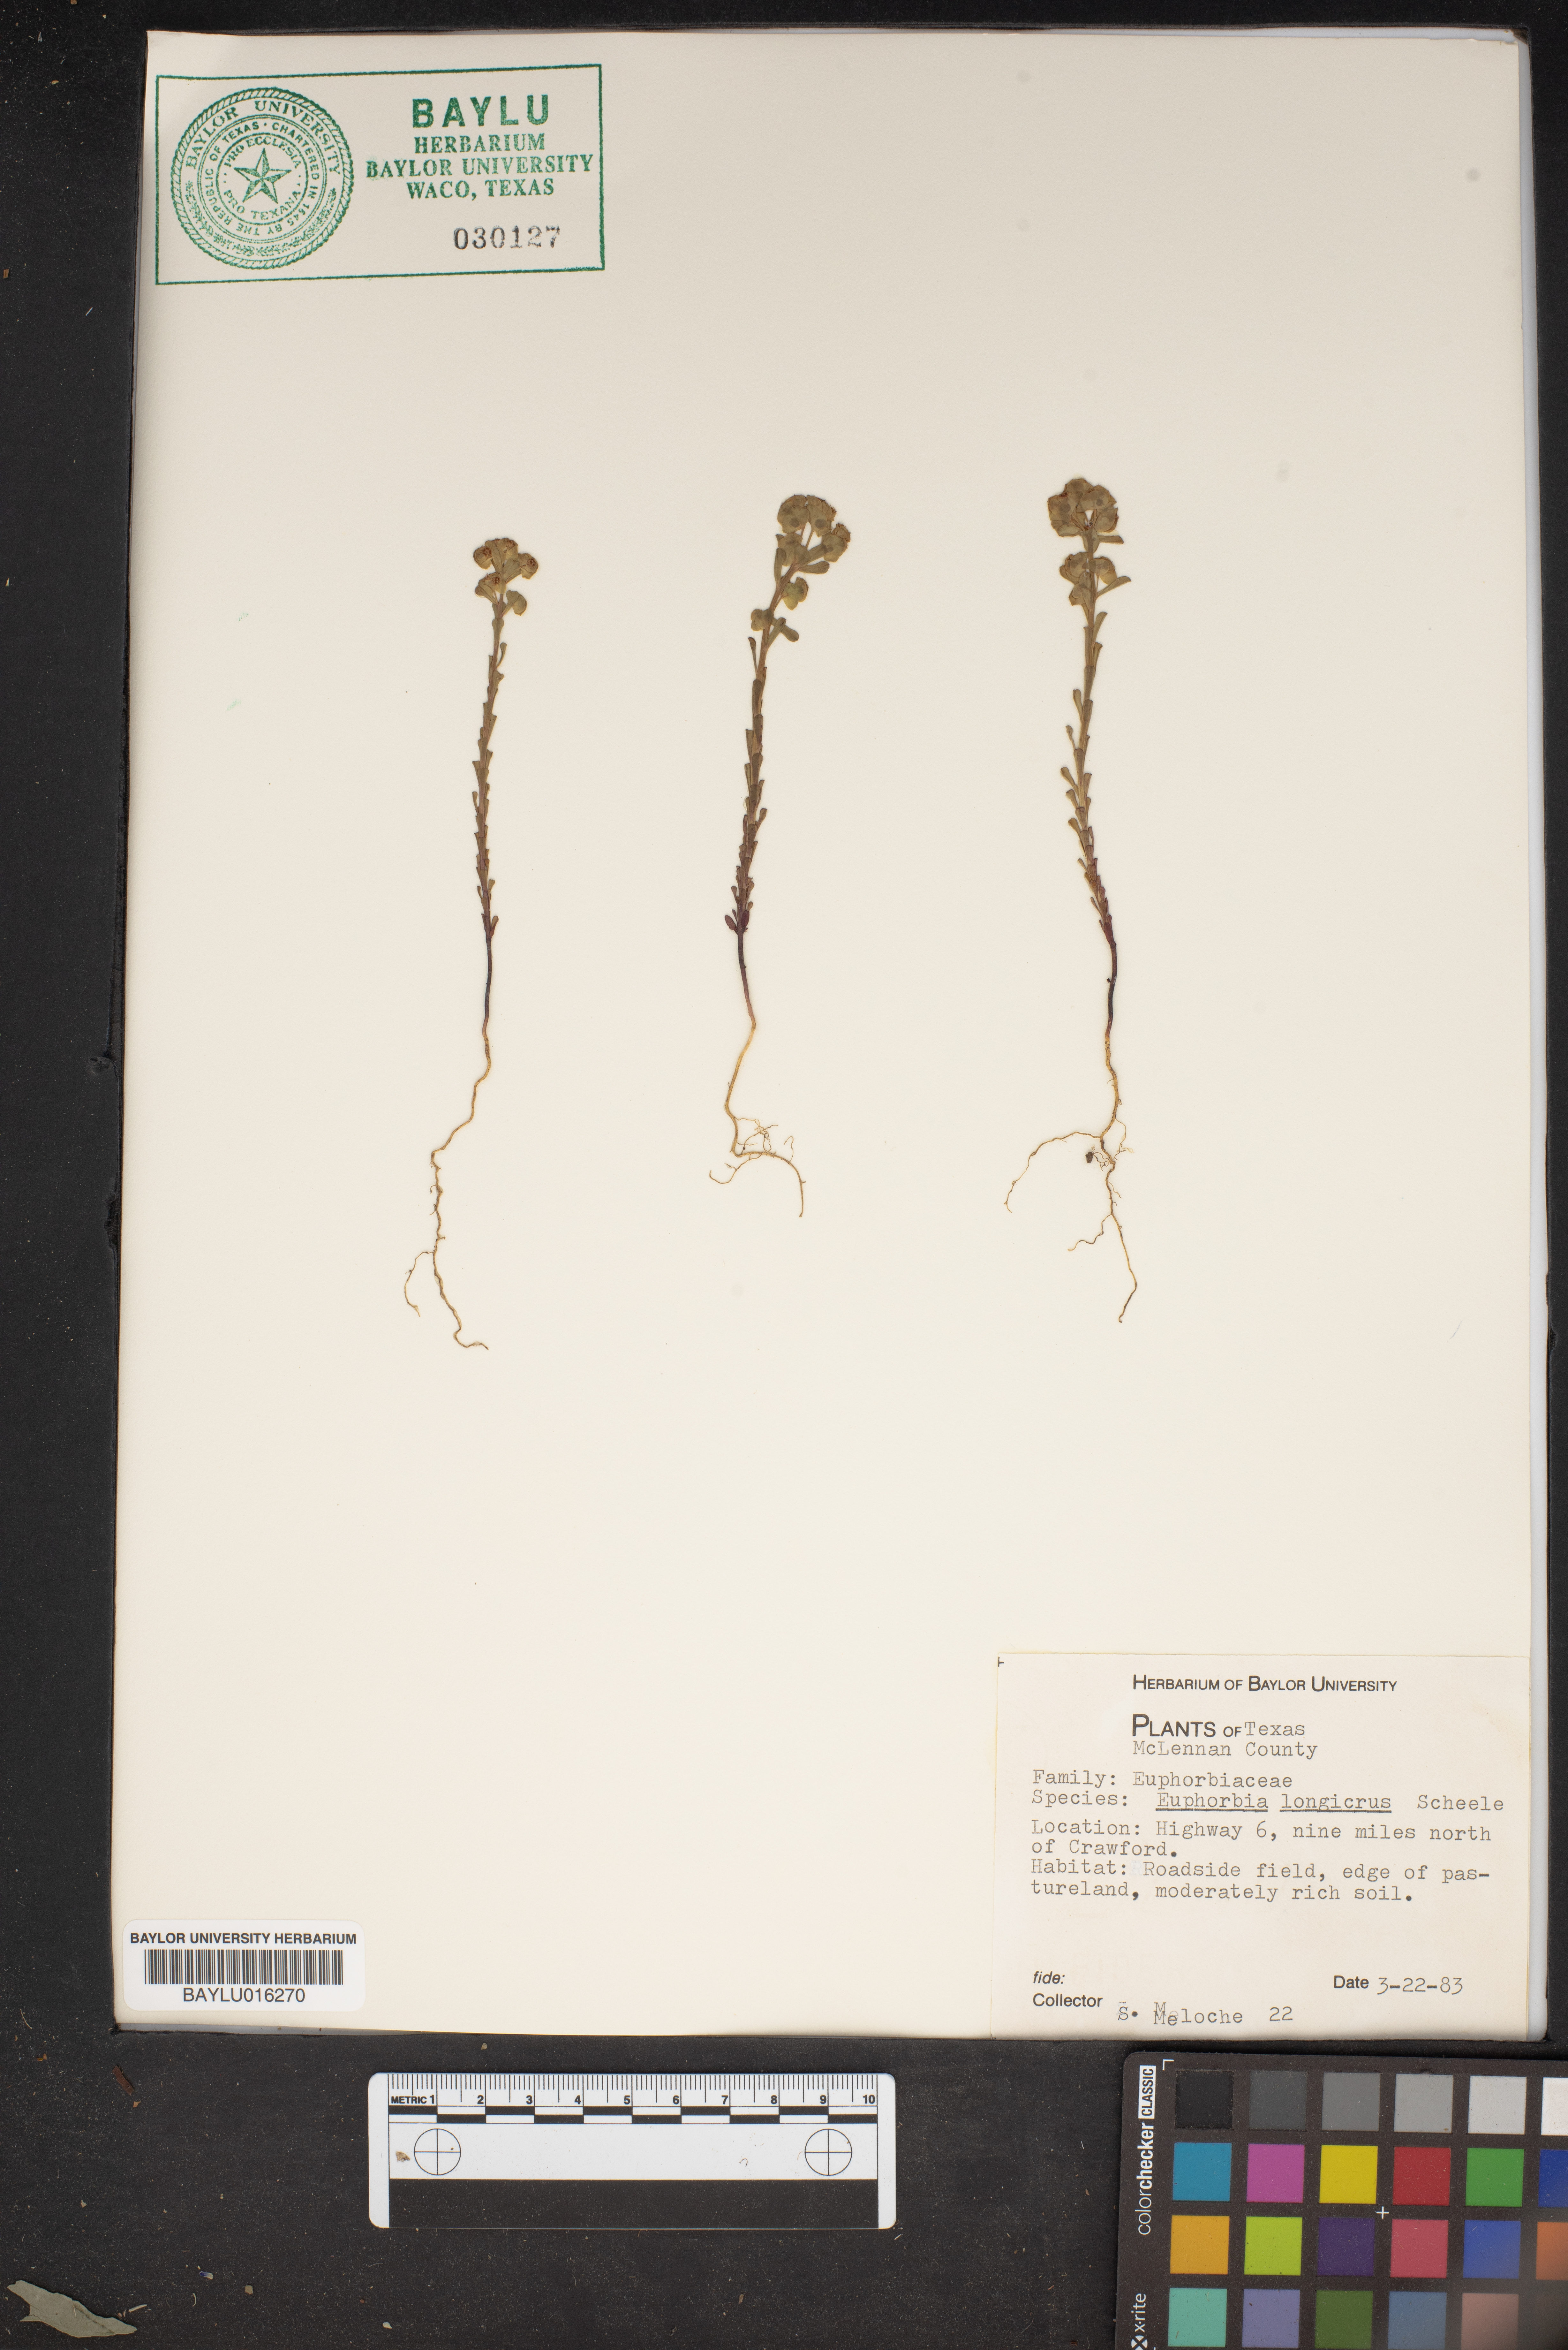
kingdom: Plantae
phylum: Tracheophyta
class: Magnoliopsida
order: Malpighiales
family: Euphorbiaceae
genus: Euphorbia
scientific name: Euphorbia longicruris
